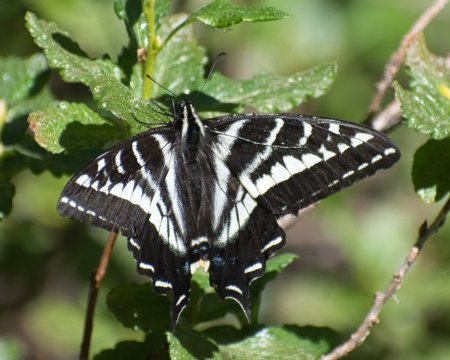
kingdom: Animalia
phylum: Arthropoda
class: Insecta
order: Lepidoptera
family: Papilionidae
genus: Pterourus
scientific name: Pterourus eurymedon
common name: Pale Swallowtail
